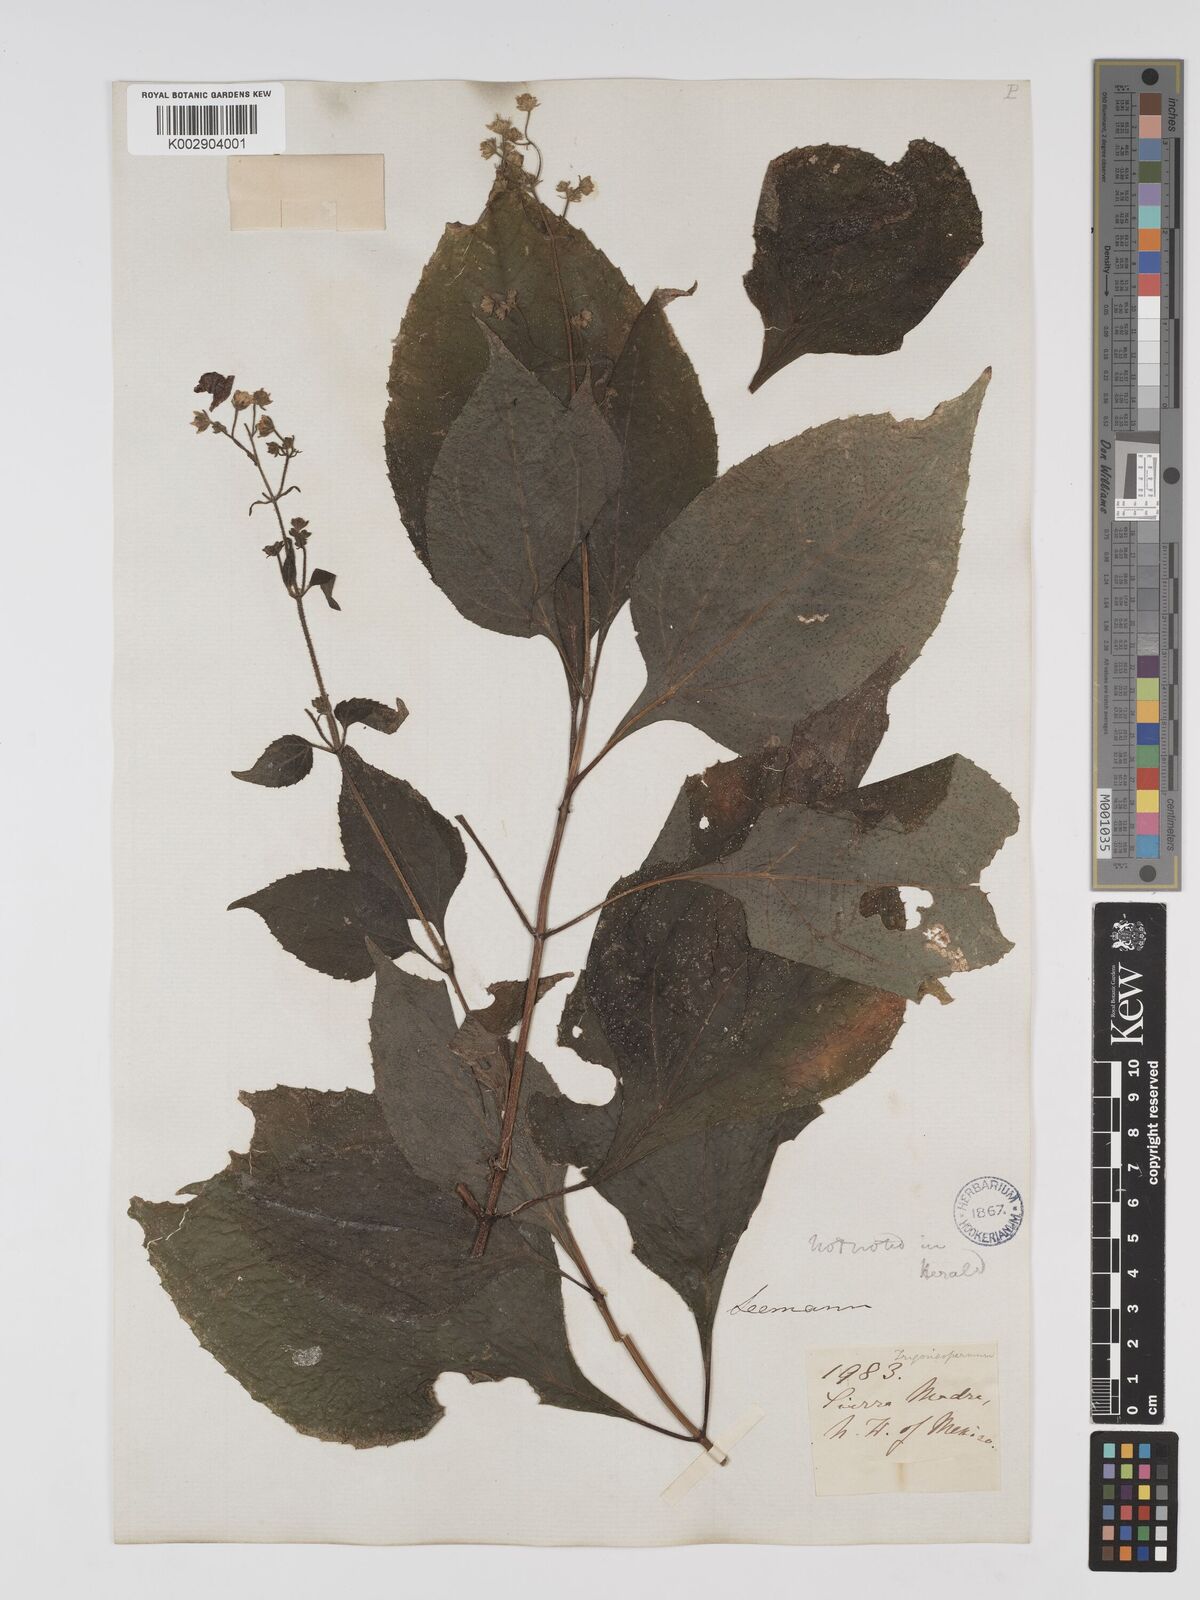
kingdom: Plantae
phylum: Tracheophyta
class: Magnoliopsida
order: Asterales
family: Asteraceae
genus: Trigonospermum
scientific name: Trigonospermum melampodioides
